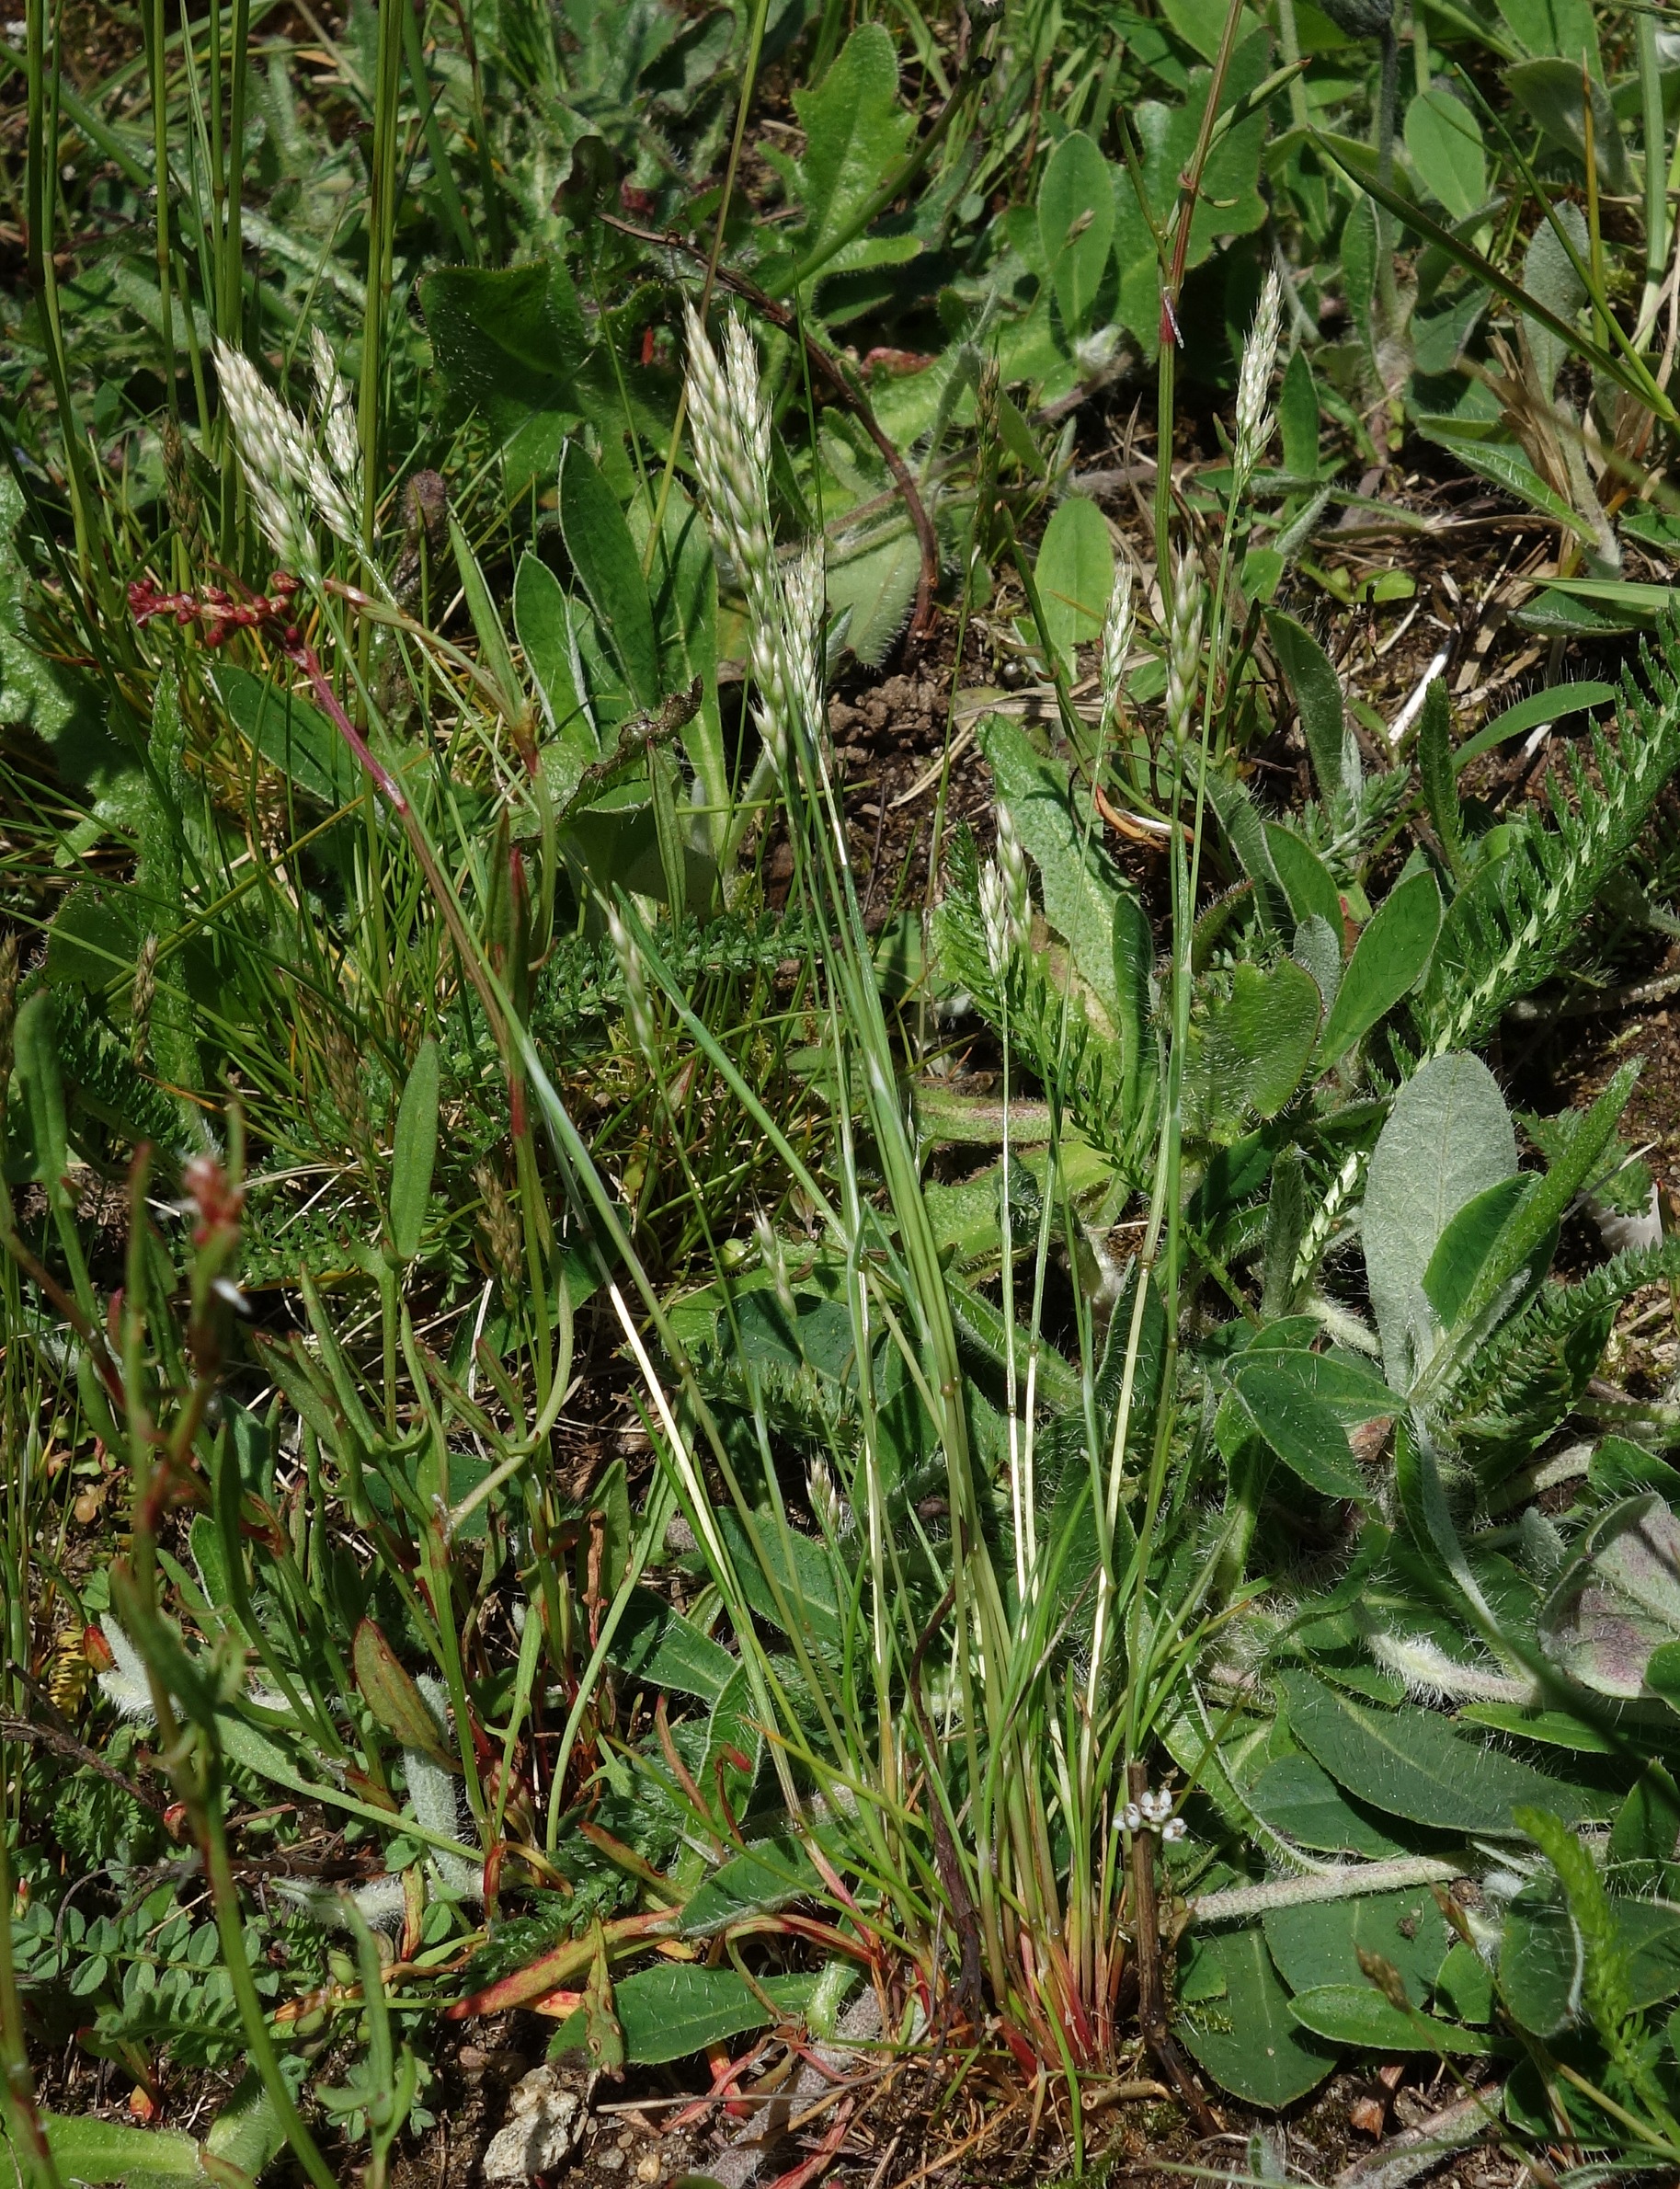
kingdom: Plantae
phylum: Tracheophyta
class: Liliopsida
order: Poales
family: Poaceae
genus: Aira
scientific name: Aira praecox
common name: Tidlig dværgbunke
